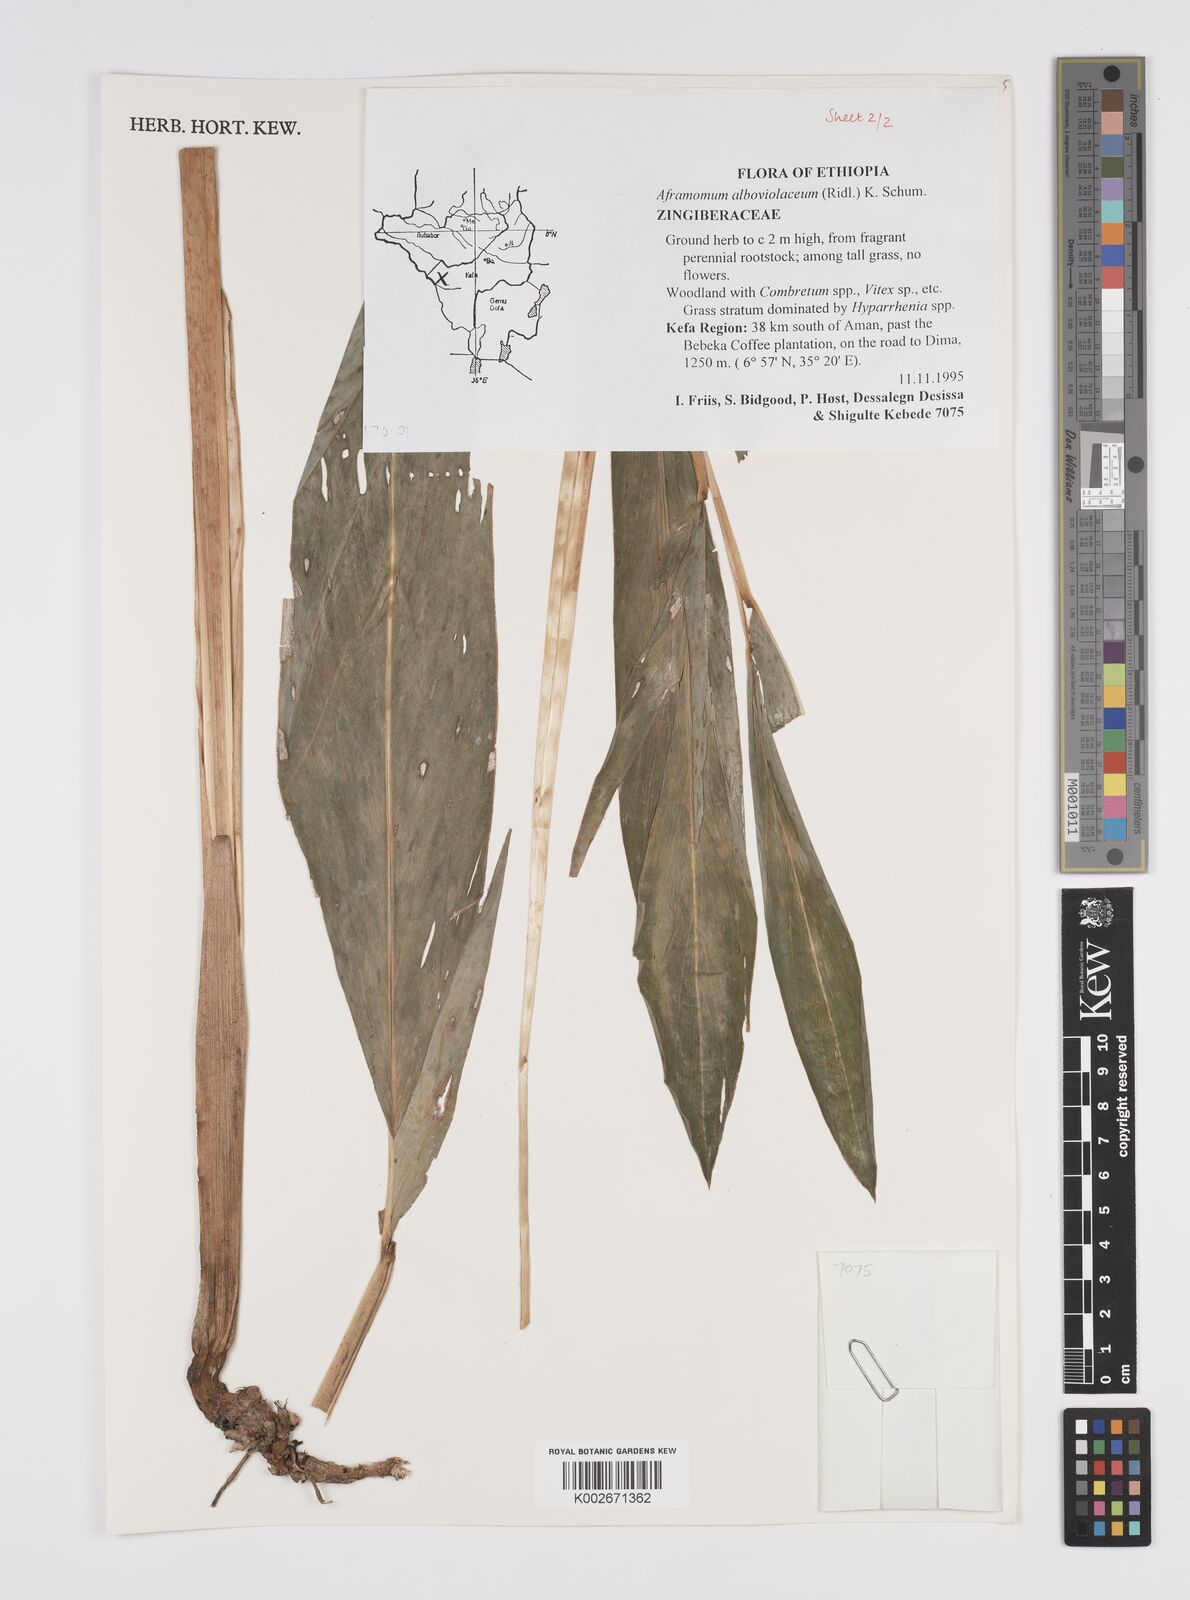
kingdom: Plantae
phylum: Tracheophyta
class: Liliopsida
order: Zingiberales
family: Zingiberaceae
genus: Aframomum
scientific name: Aframomum alboviolaceum
